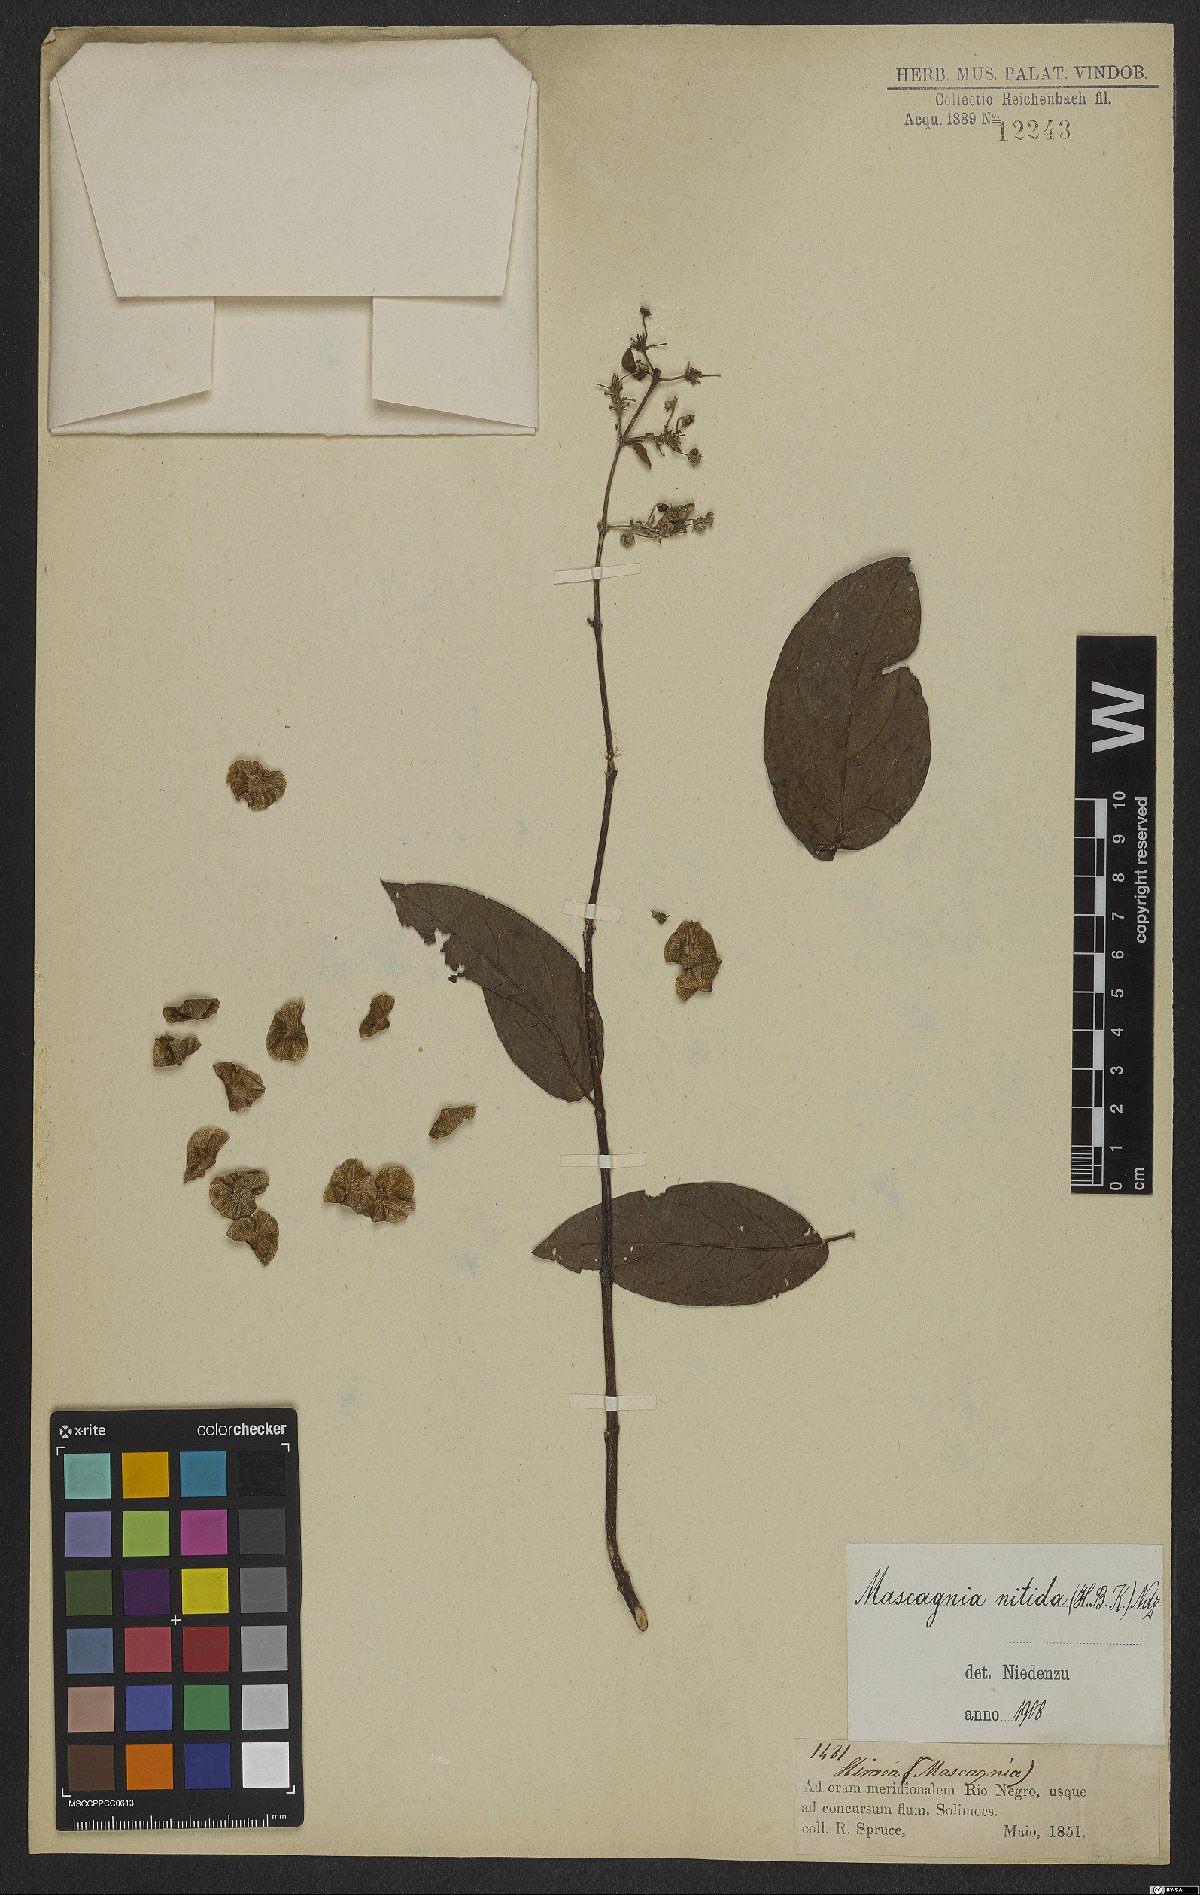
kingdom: Plantae
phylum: Tracheophyta
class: Magnoliopsida
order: Malpighiales
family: Malpighiaceae
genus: Heteropterys
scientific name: Heteropterys complicata
